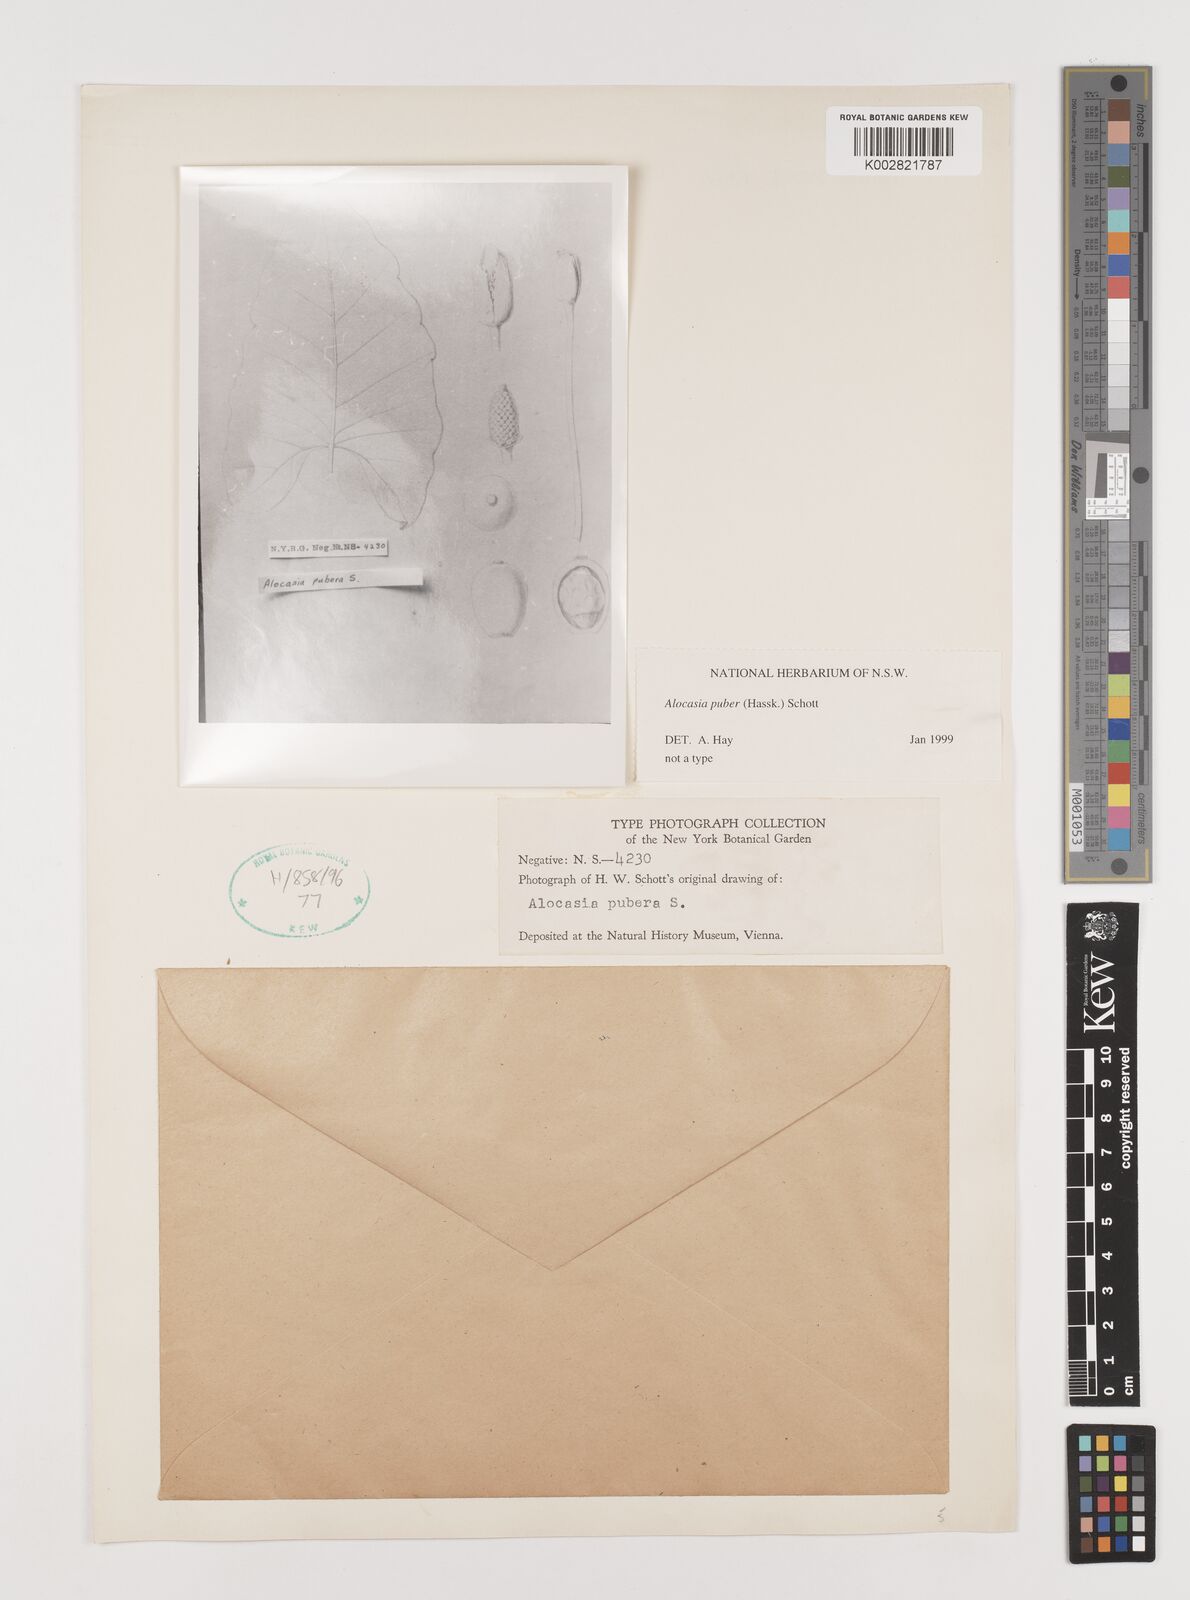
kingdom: Plantae
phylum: Tracheophyta
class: Liliopsida
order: Alismatales
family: Araceae
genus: Alocasia
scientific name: Alocasia puber
